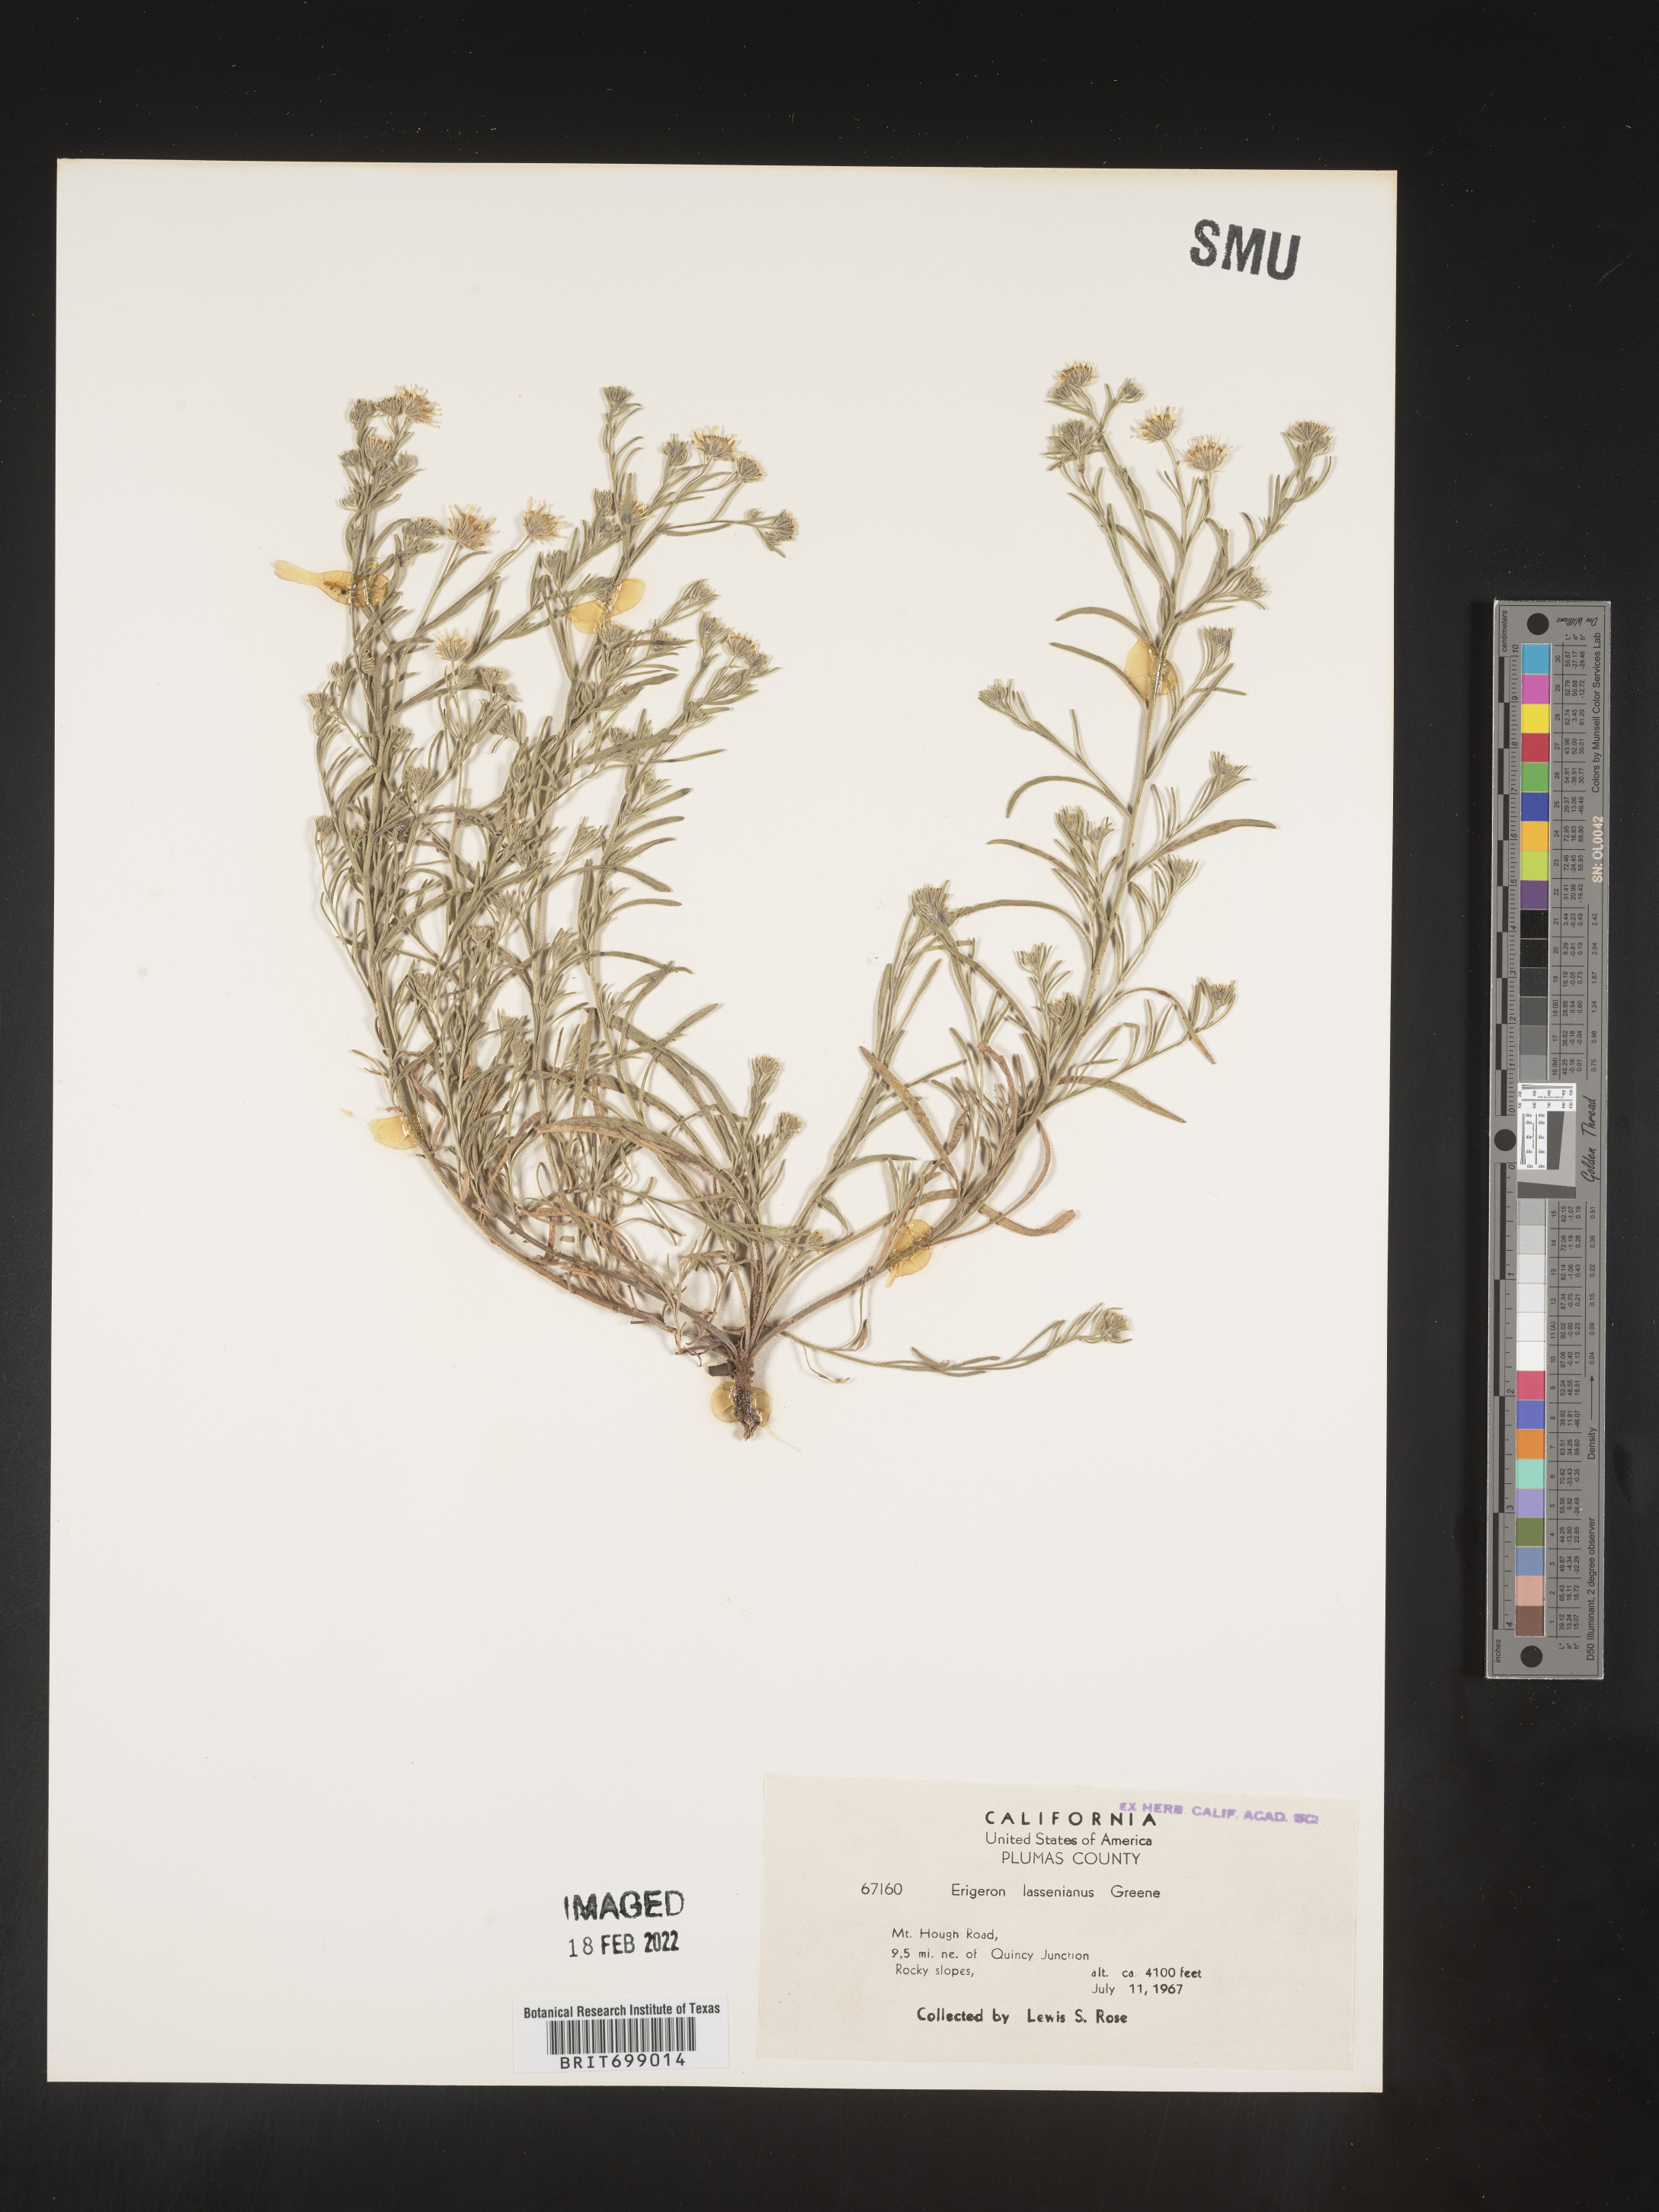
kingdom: Plantae
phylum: Tracheophyta
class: Magnoliopsida
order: Asterales
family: Asteraceae
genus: Erigeron
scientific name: Erigeron lassenianus
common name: Mt. lassen fleabane
